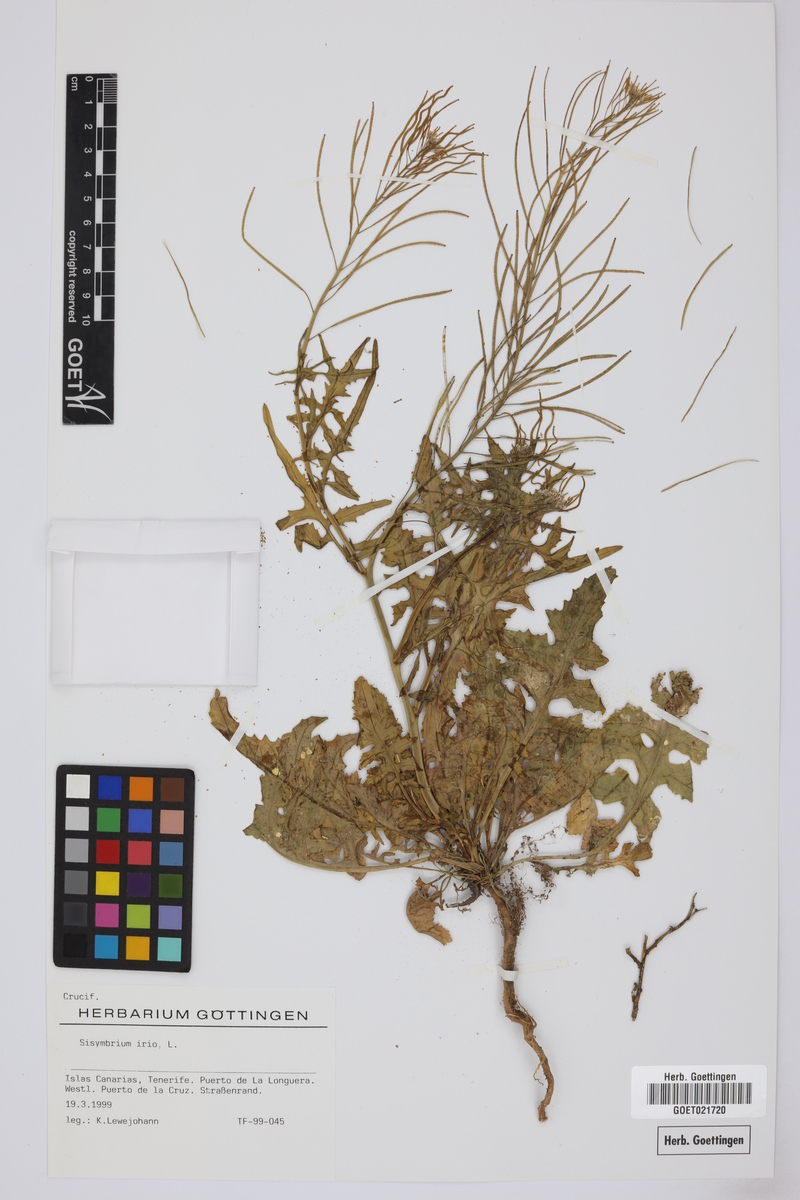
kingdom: Plantae
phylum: Tracheophyta
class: Magnoliopsida
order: Brassicales
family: Brassicaceae
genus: Sisymbrium
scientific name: Sisymbrium irio
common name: London rocket
